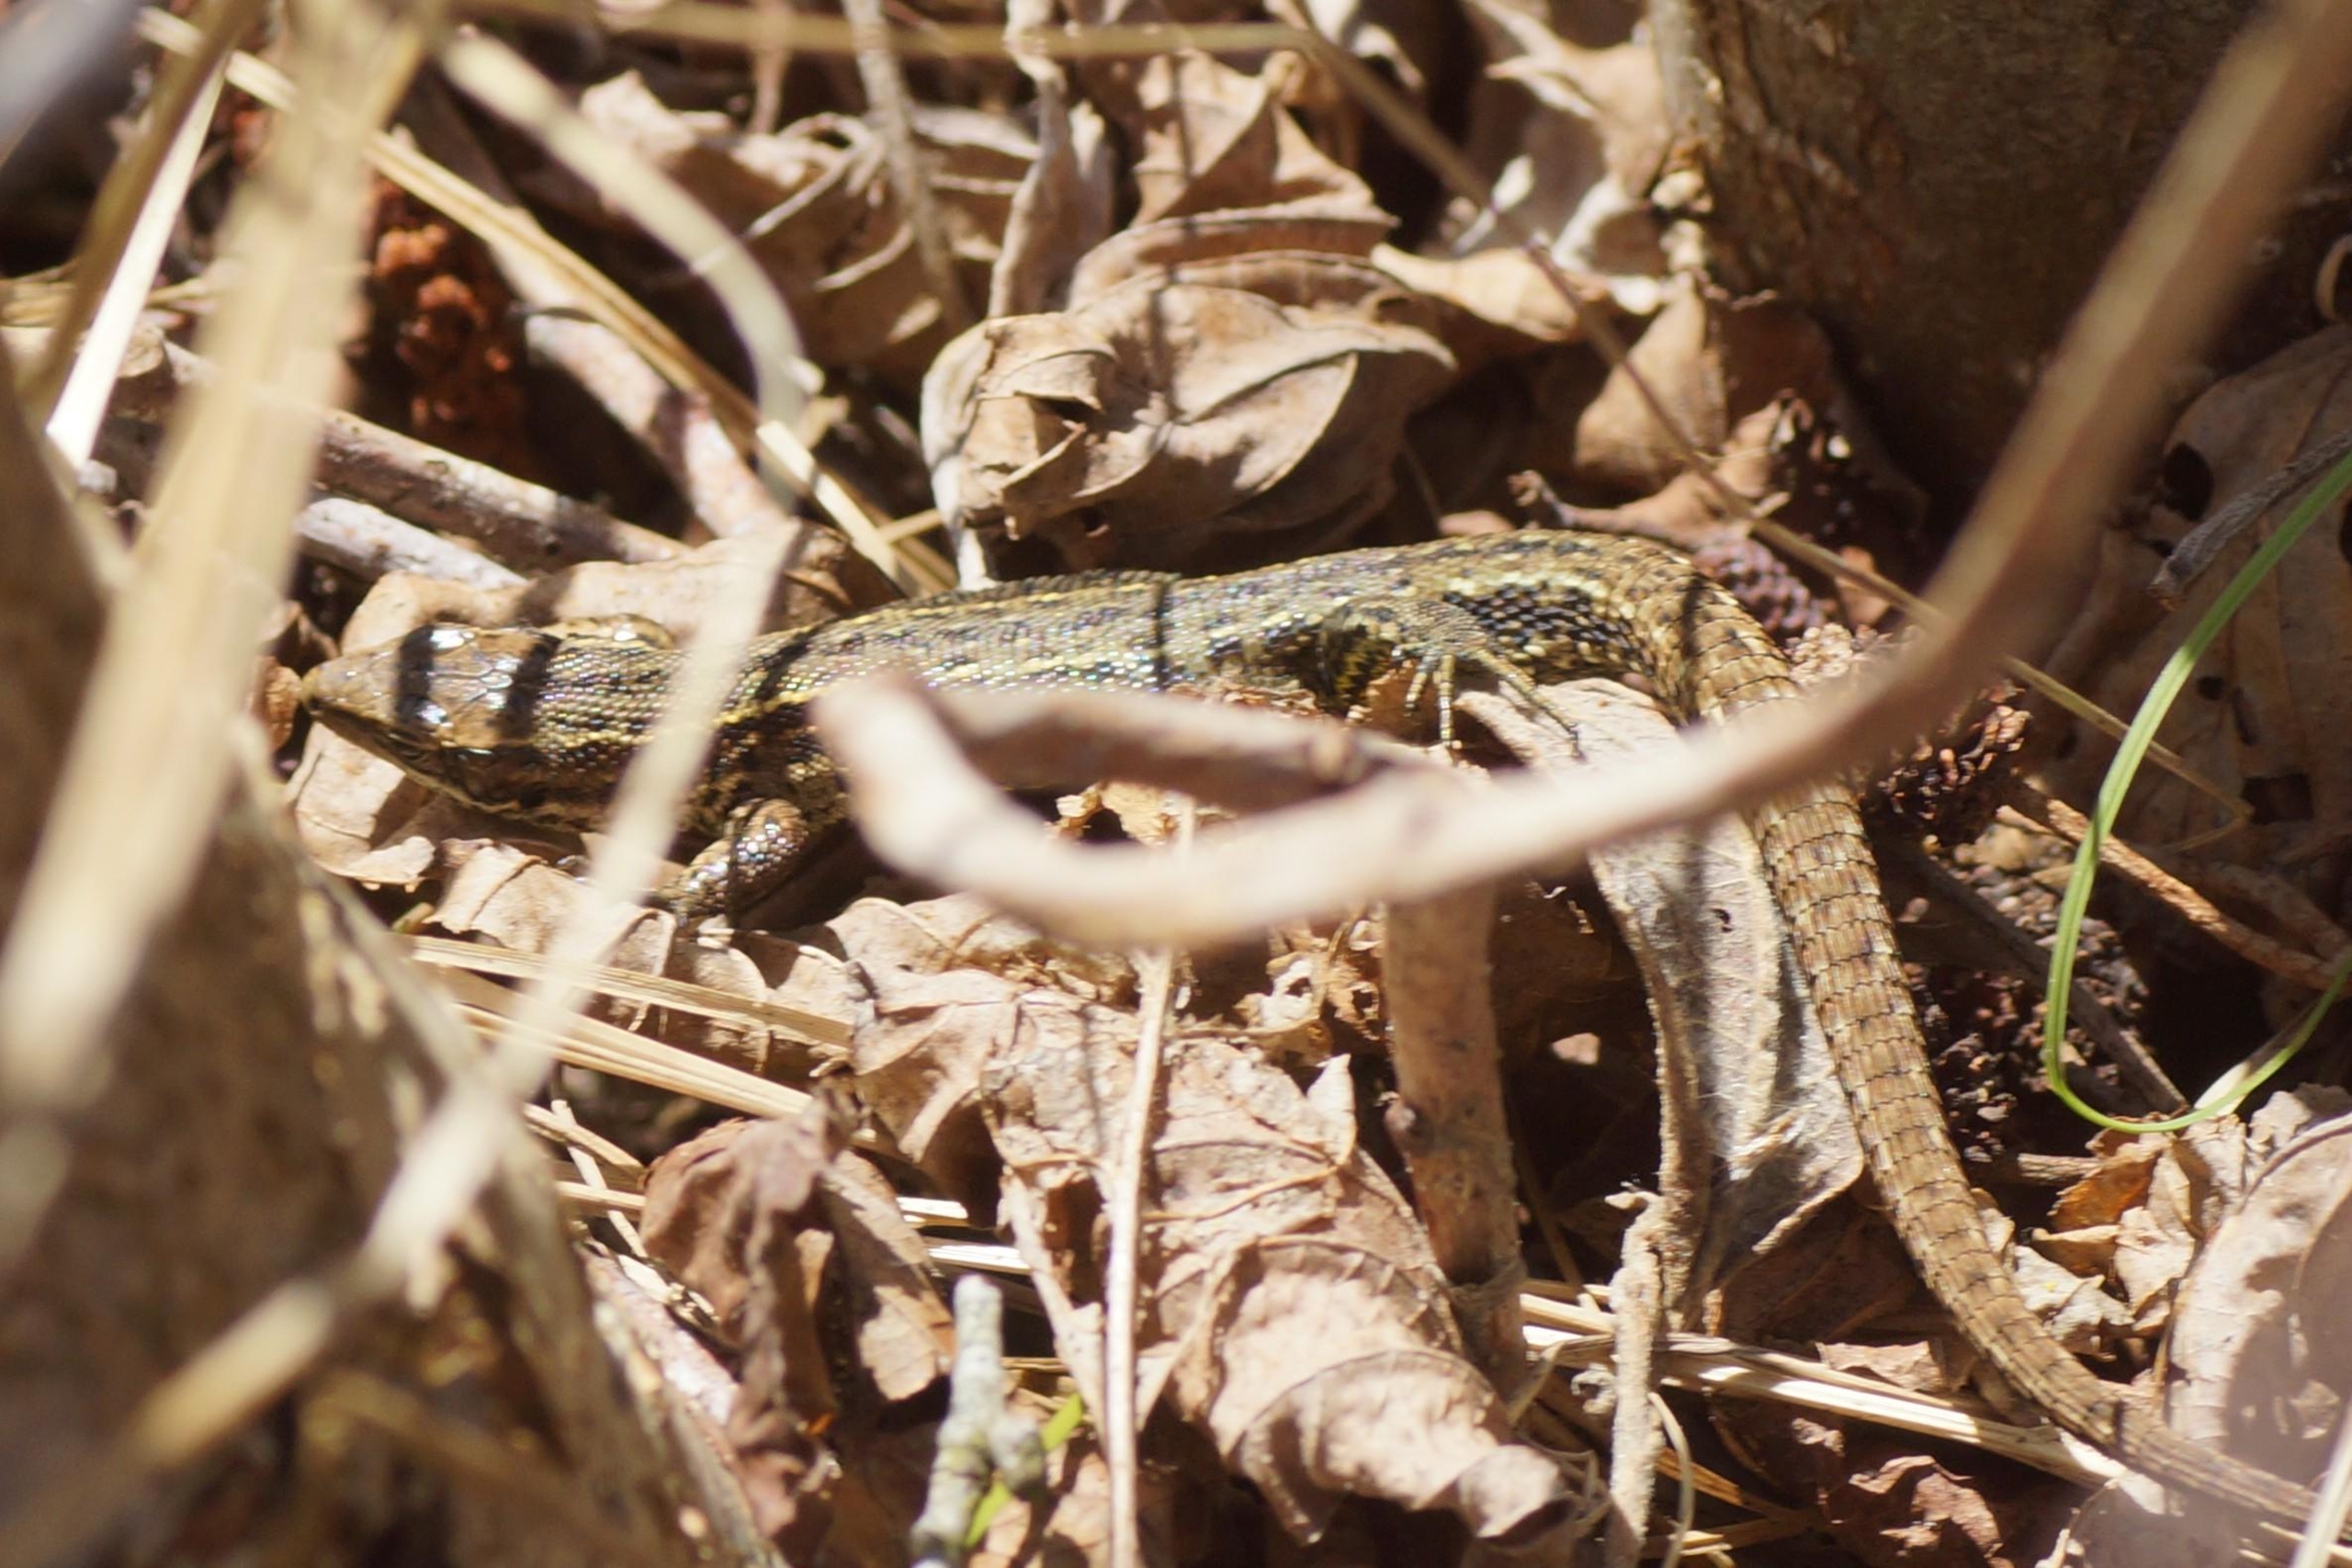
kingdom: Animalia
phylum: Chordata
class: Squamata
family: Lacertidae
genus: Zootoca
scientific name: Zootoca vivipara
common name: Skovfirben
